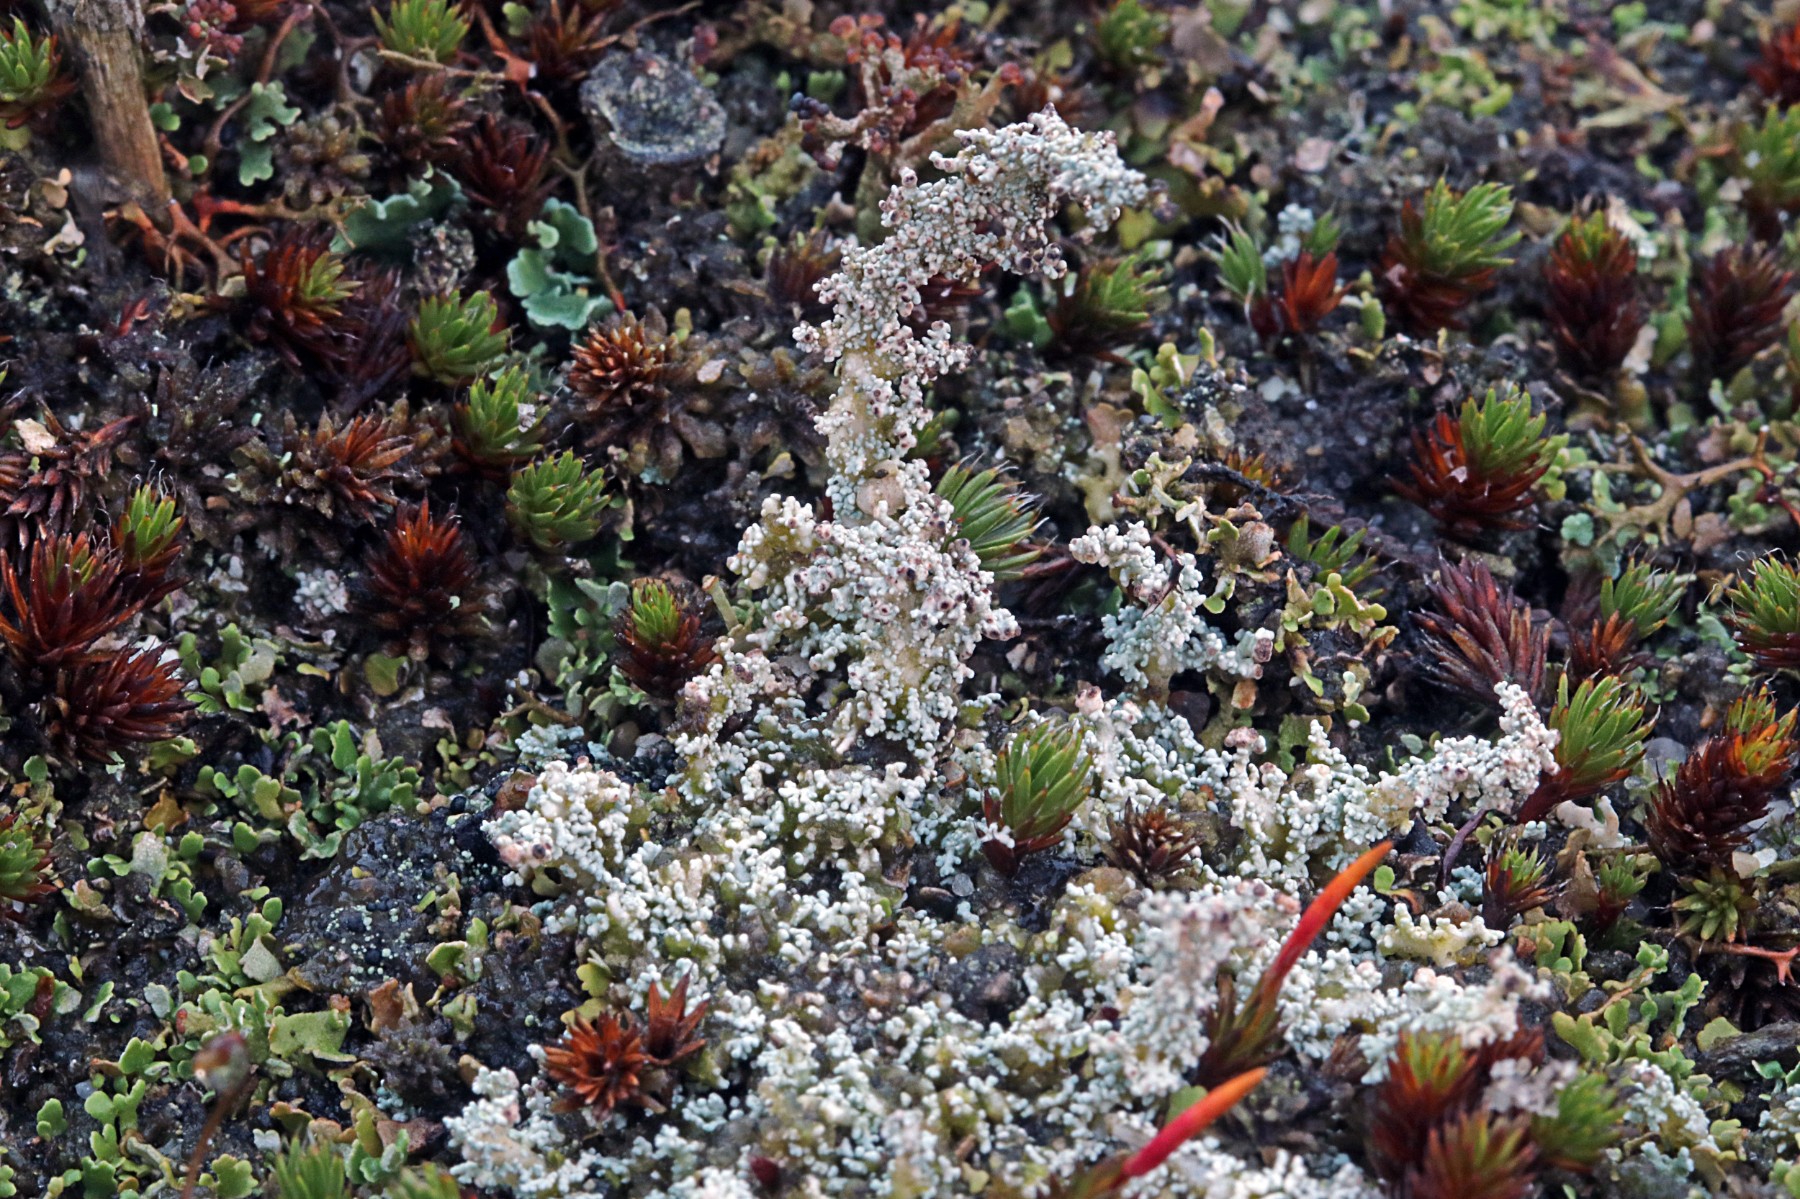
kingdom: Fungi
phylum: Ascomycota
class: Lecanoromycetes
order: Lecanorales
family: Stereocaulaceae
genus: Stereocaulon
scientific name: Stereocaulon saxatile
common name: klit-korallav
